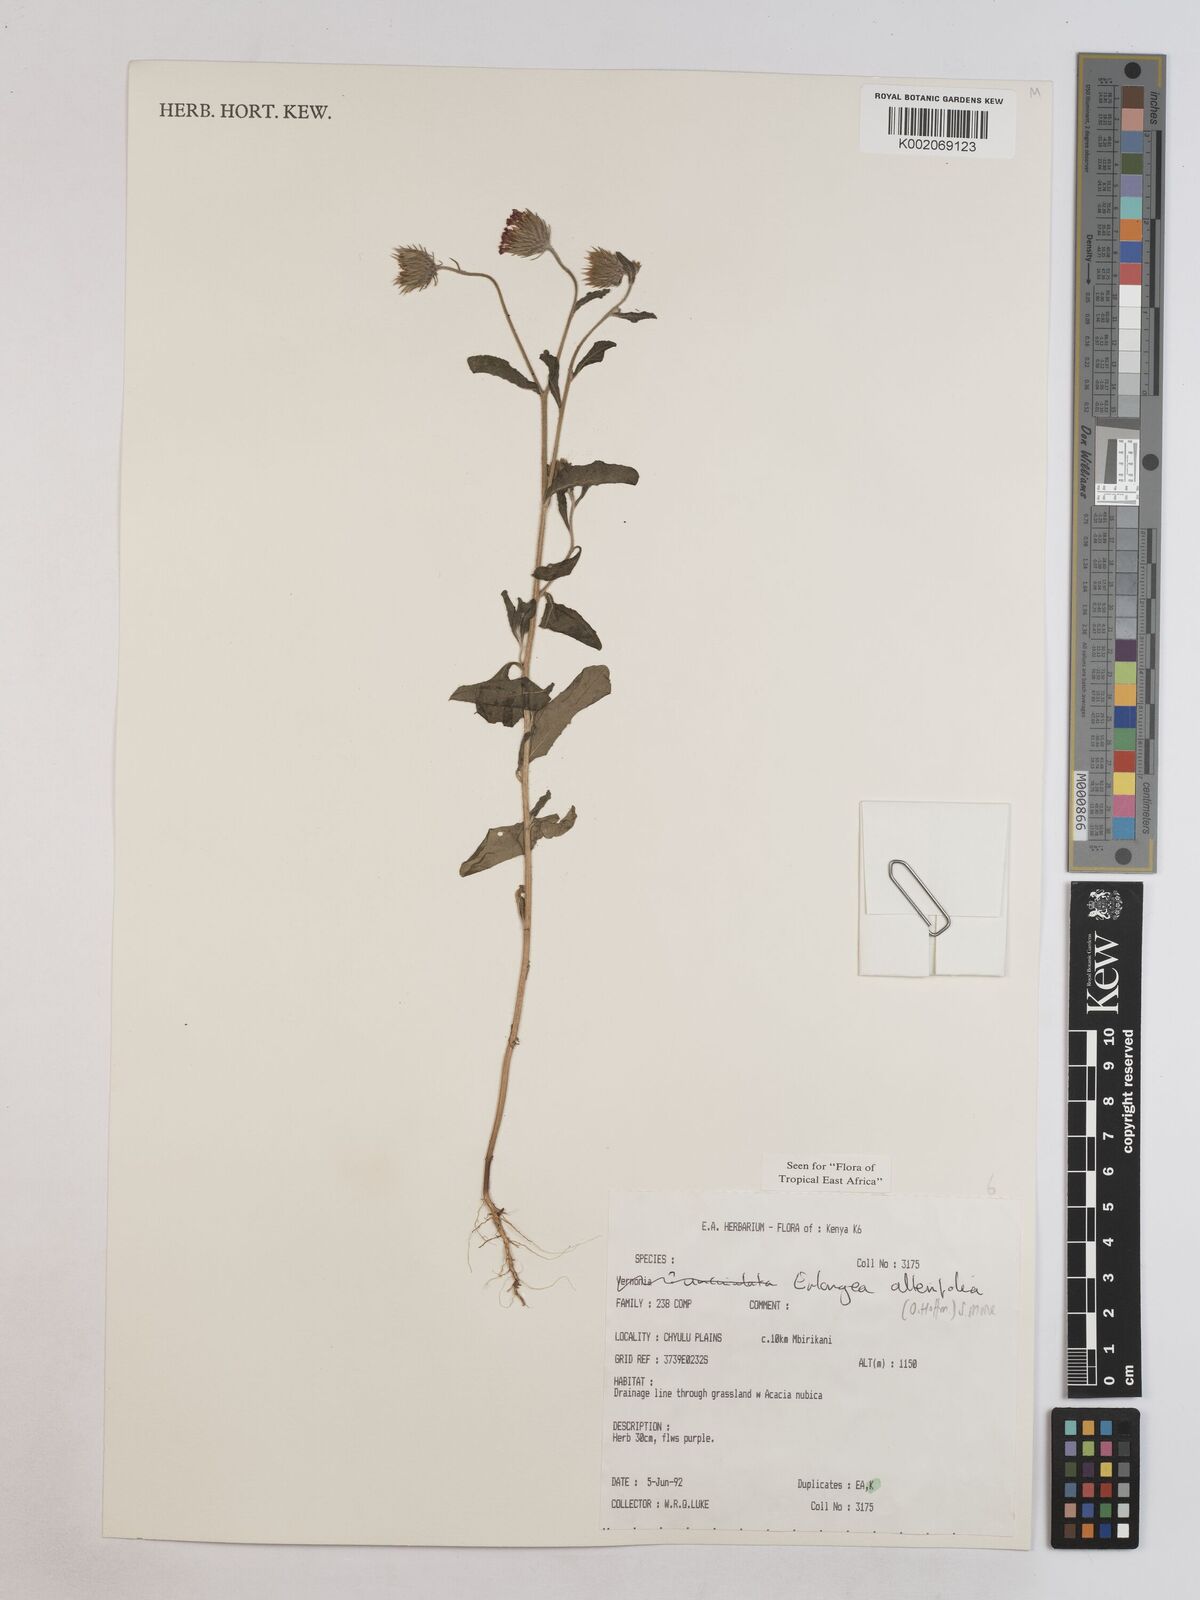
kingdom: Plantae
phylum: Tracheophyta
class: Magnoliopsida
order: Asterales
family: Asteraceae
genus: Erlangea
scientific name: Erlangea alternifolia
